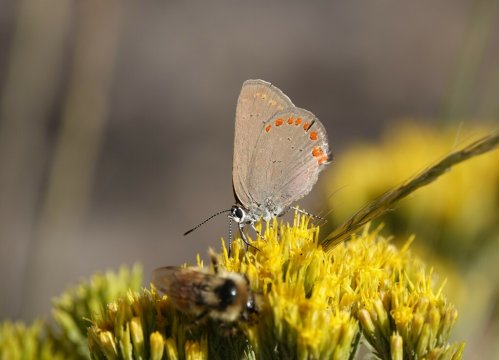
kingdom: Animalia
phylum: Arthropoda
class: Insecta
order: Lepidoptera
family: Lycaenidae
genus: Harkenclenus
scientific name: Harkenclenus titus
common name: Coral Hairstreak
